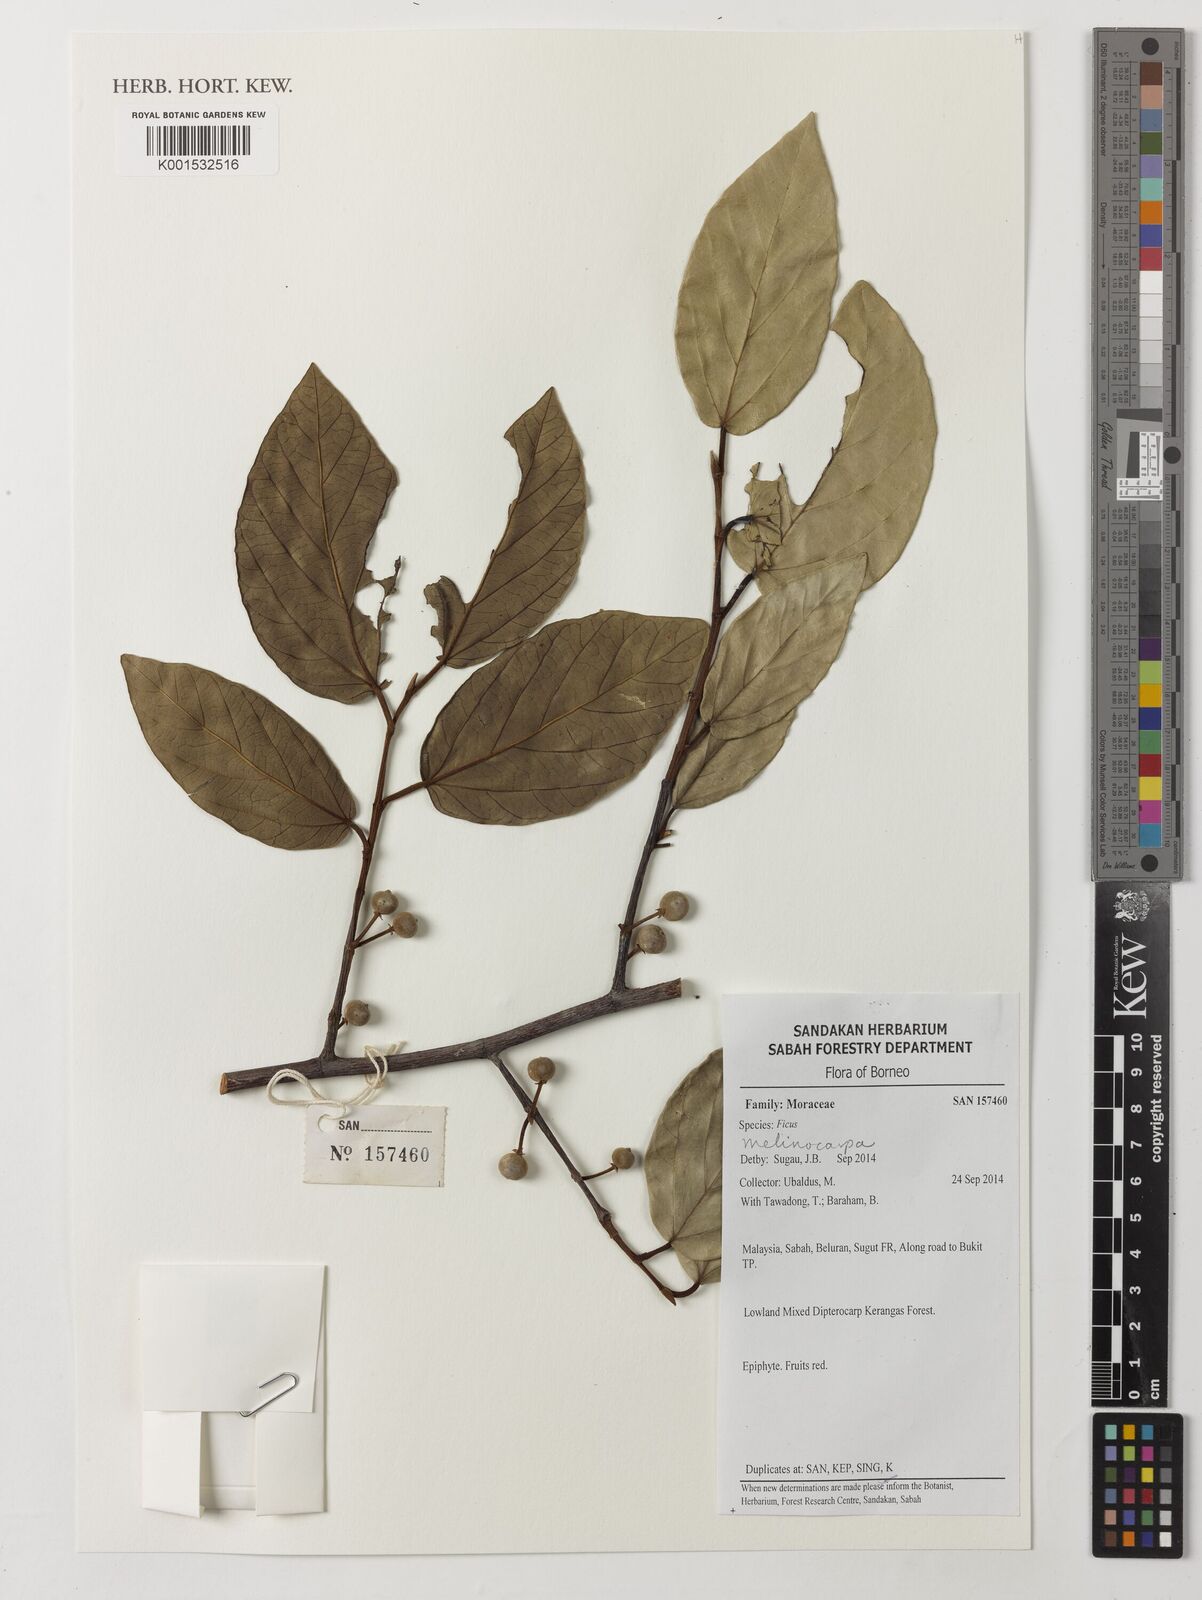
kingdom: Plantae
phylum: Tracheophyta
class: Magnoliopsida
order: Rosales
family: Moraceae
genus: Ficus
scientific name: Ficus melinocarpa
